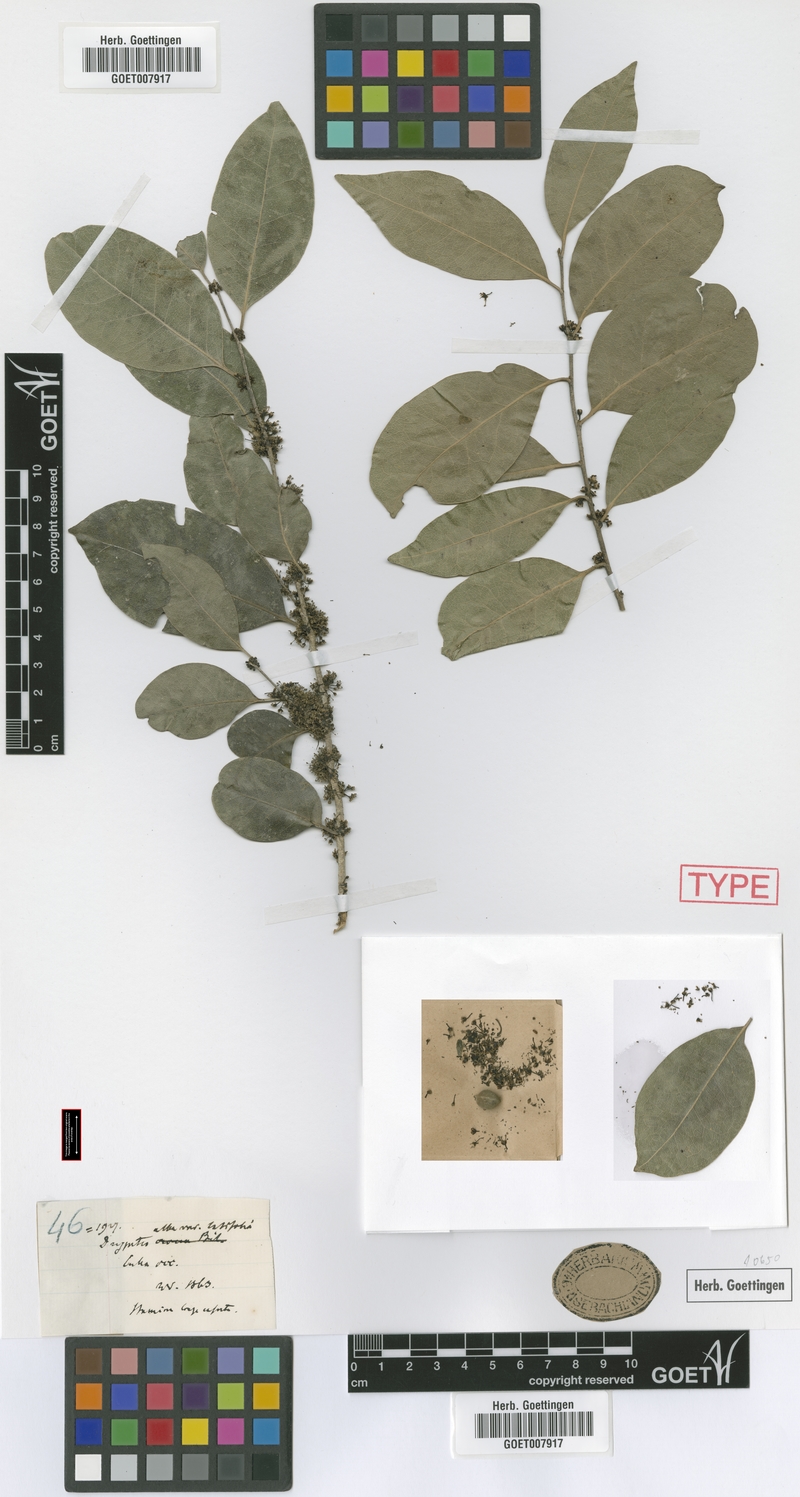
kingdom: Plantae
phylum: Tracheophyta
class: Magnoliopsida
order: Malpighiales
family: Putranjivaceae
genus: Drypetes
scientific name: Drypetes alba
